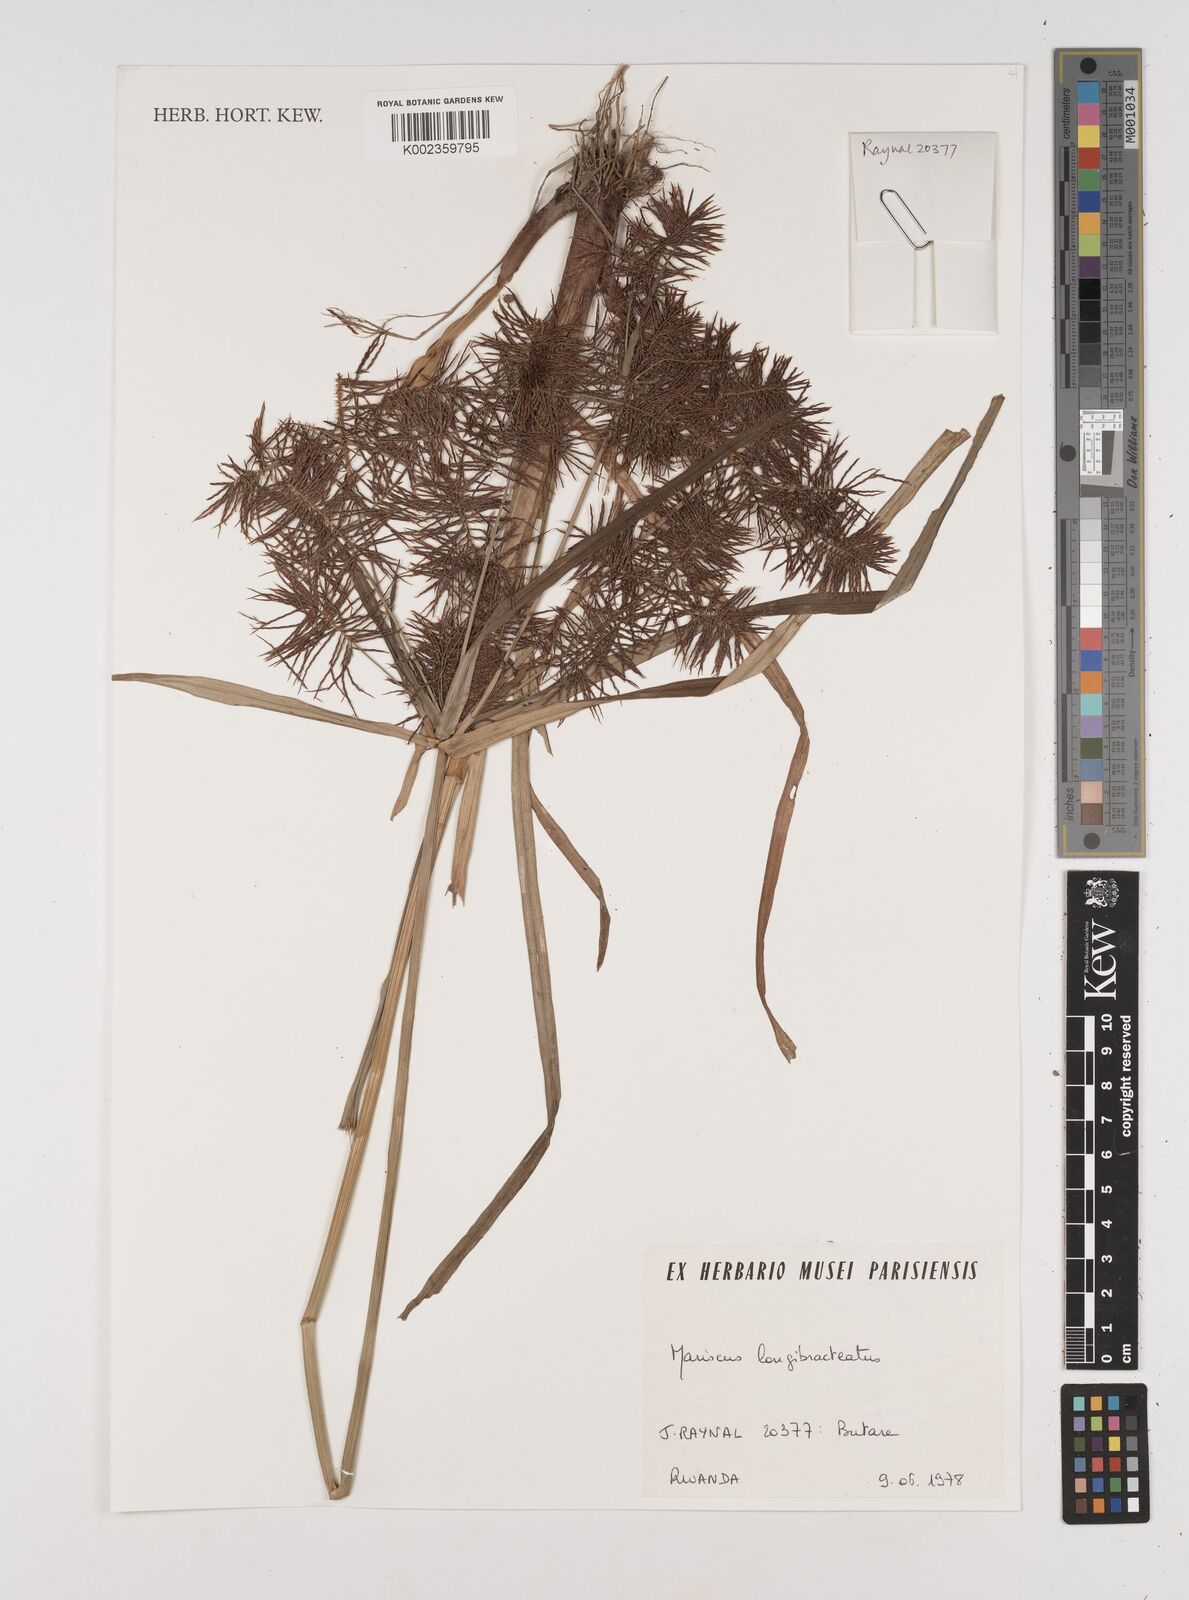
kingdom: Plantae
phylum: Tracheophyta
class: Liliopsida
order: Poales
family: Cyperaceae
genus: Cyperus
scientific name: Cyperus distans
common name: Slender cyperus
